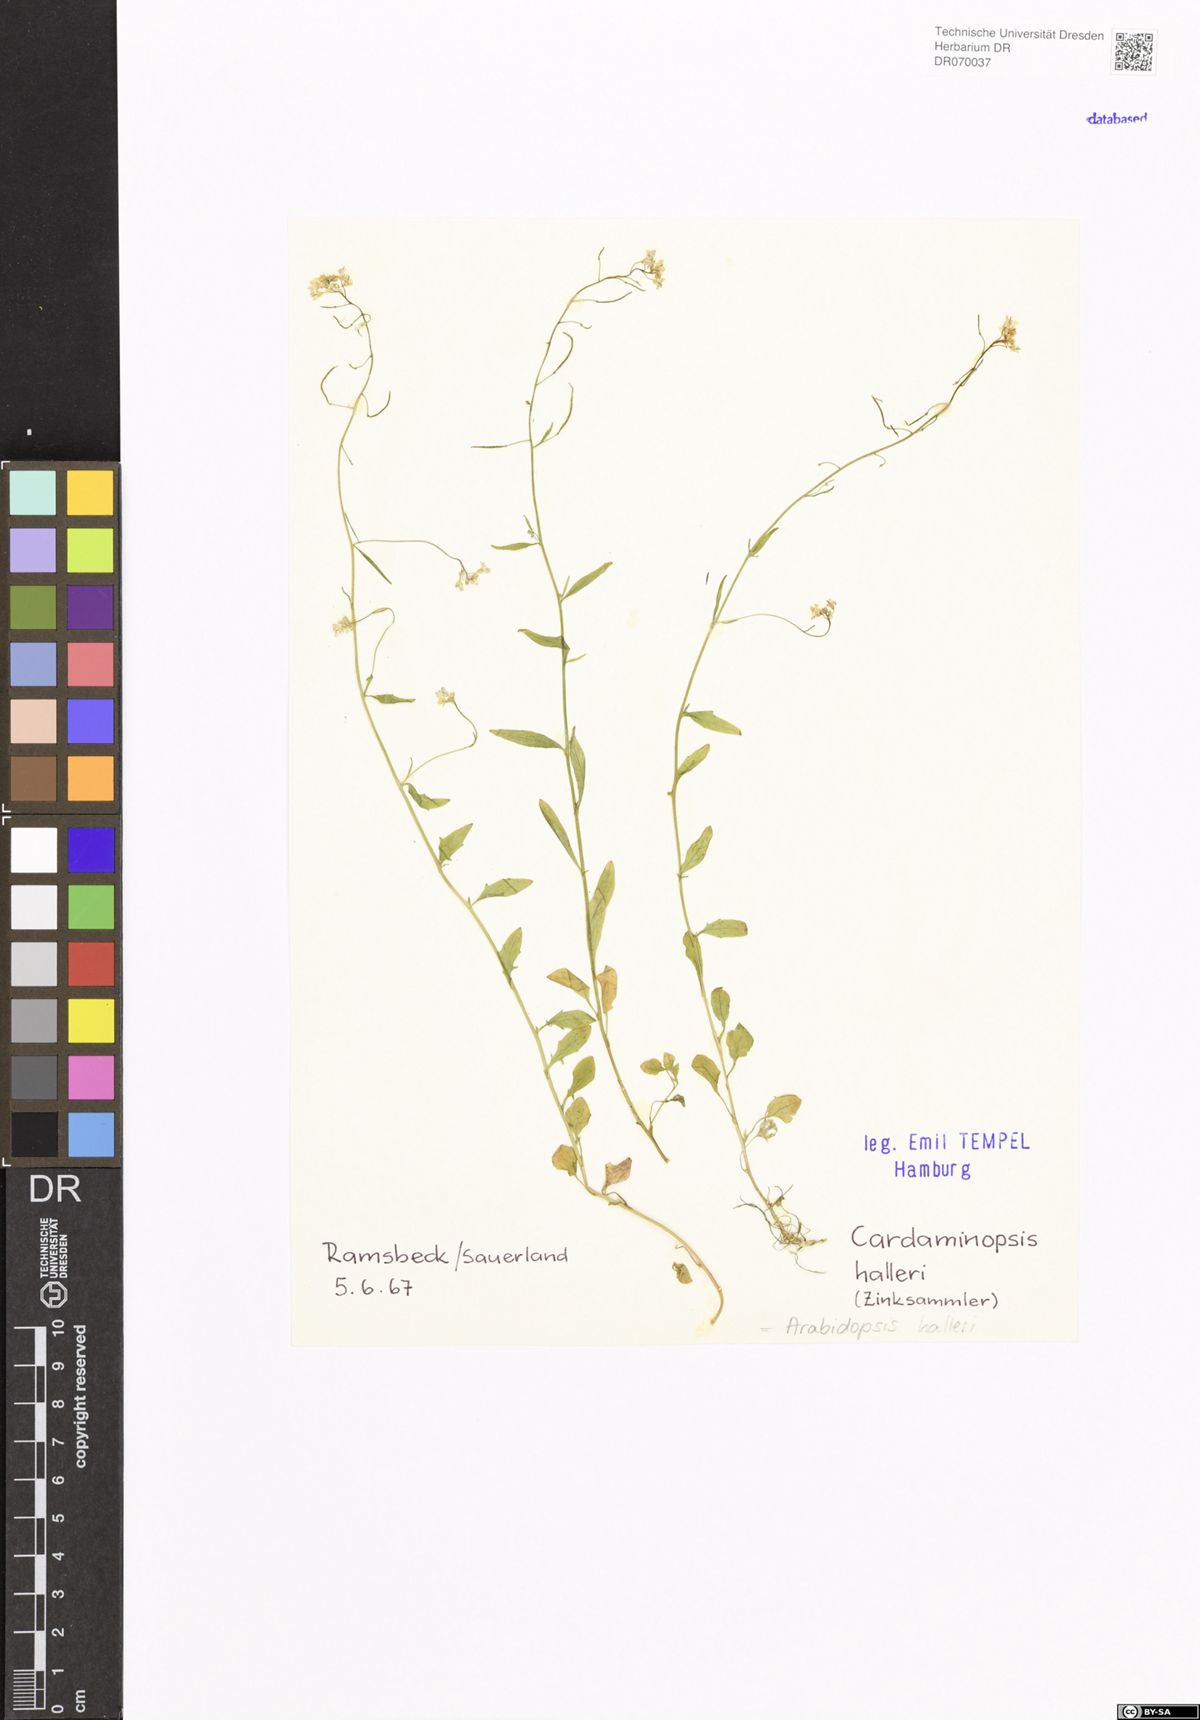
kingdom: Plantae
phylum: Tracheophyta
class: Magnoliopsida
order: Brassicales
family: Brassicaceae
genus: Arabidopsis
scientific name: Arabidopsis halleri
